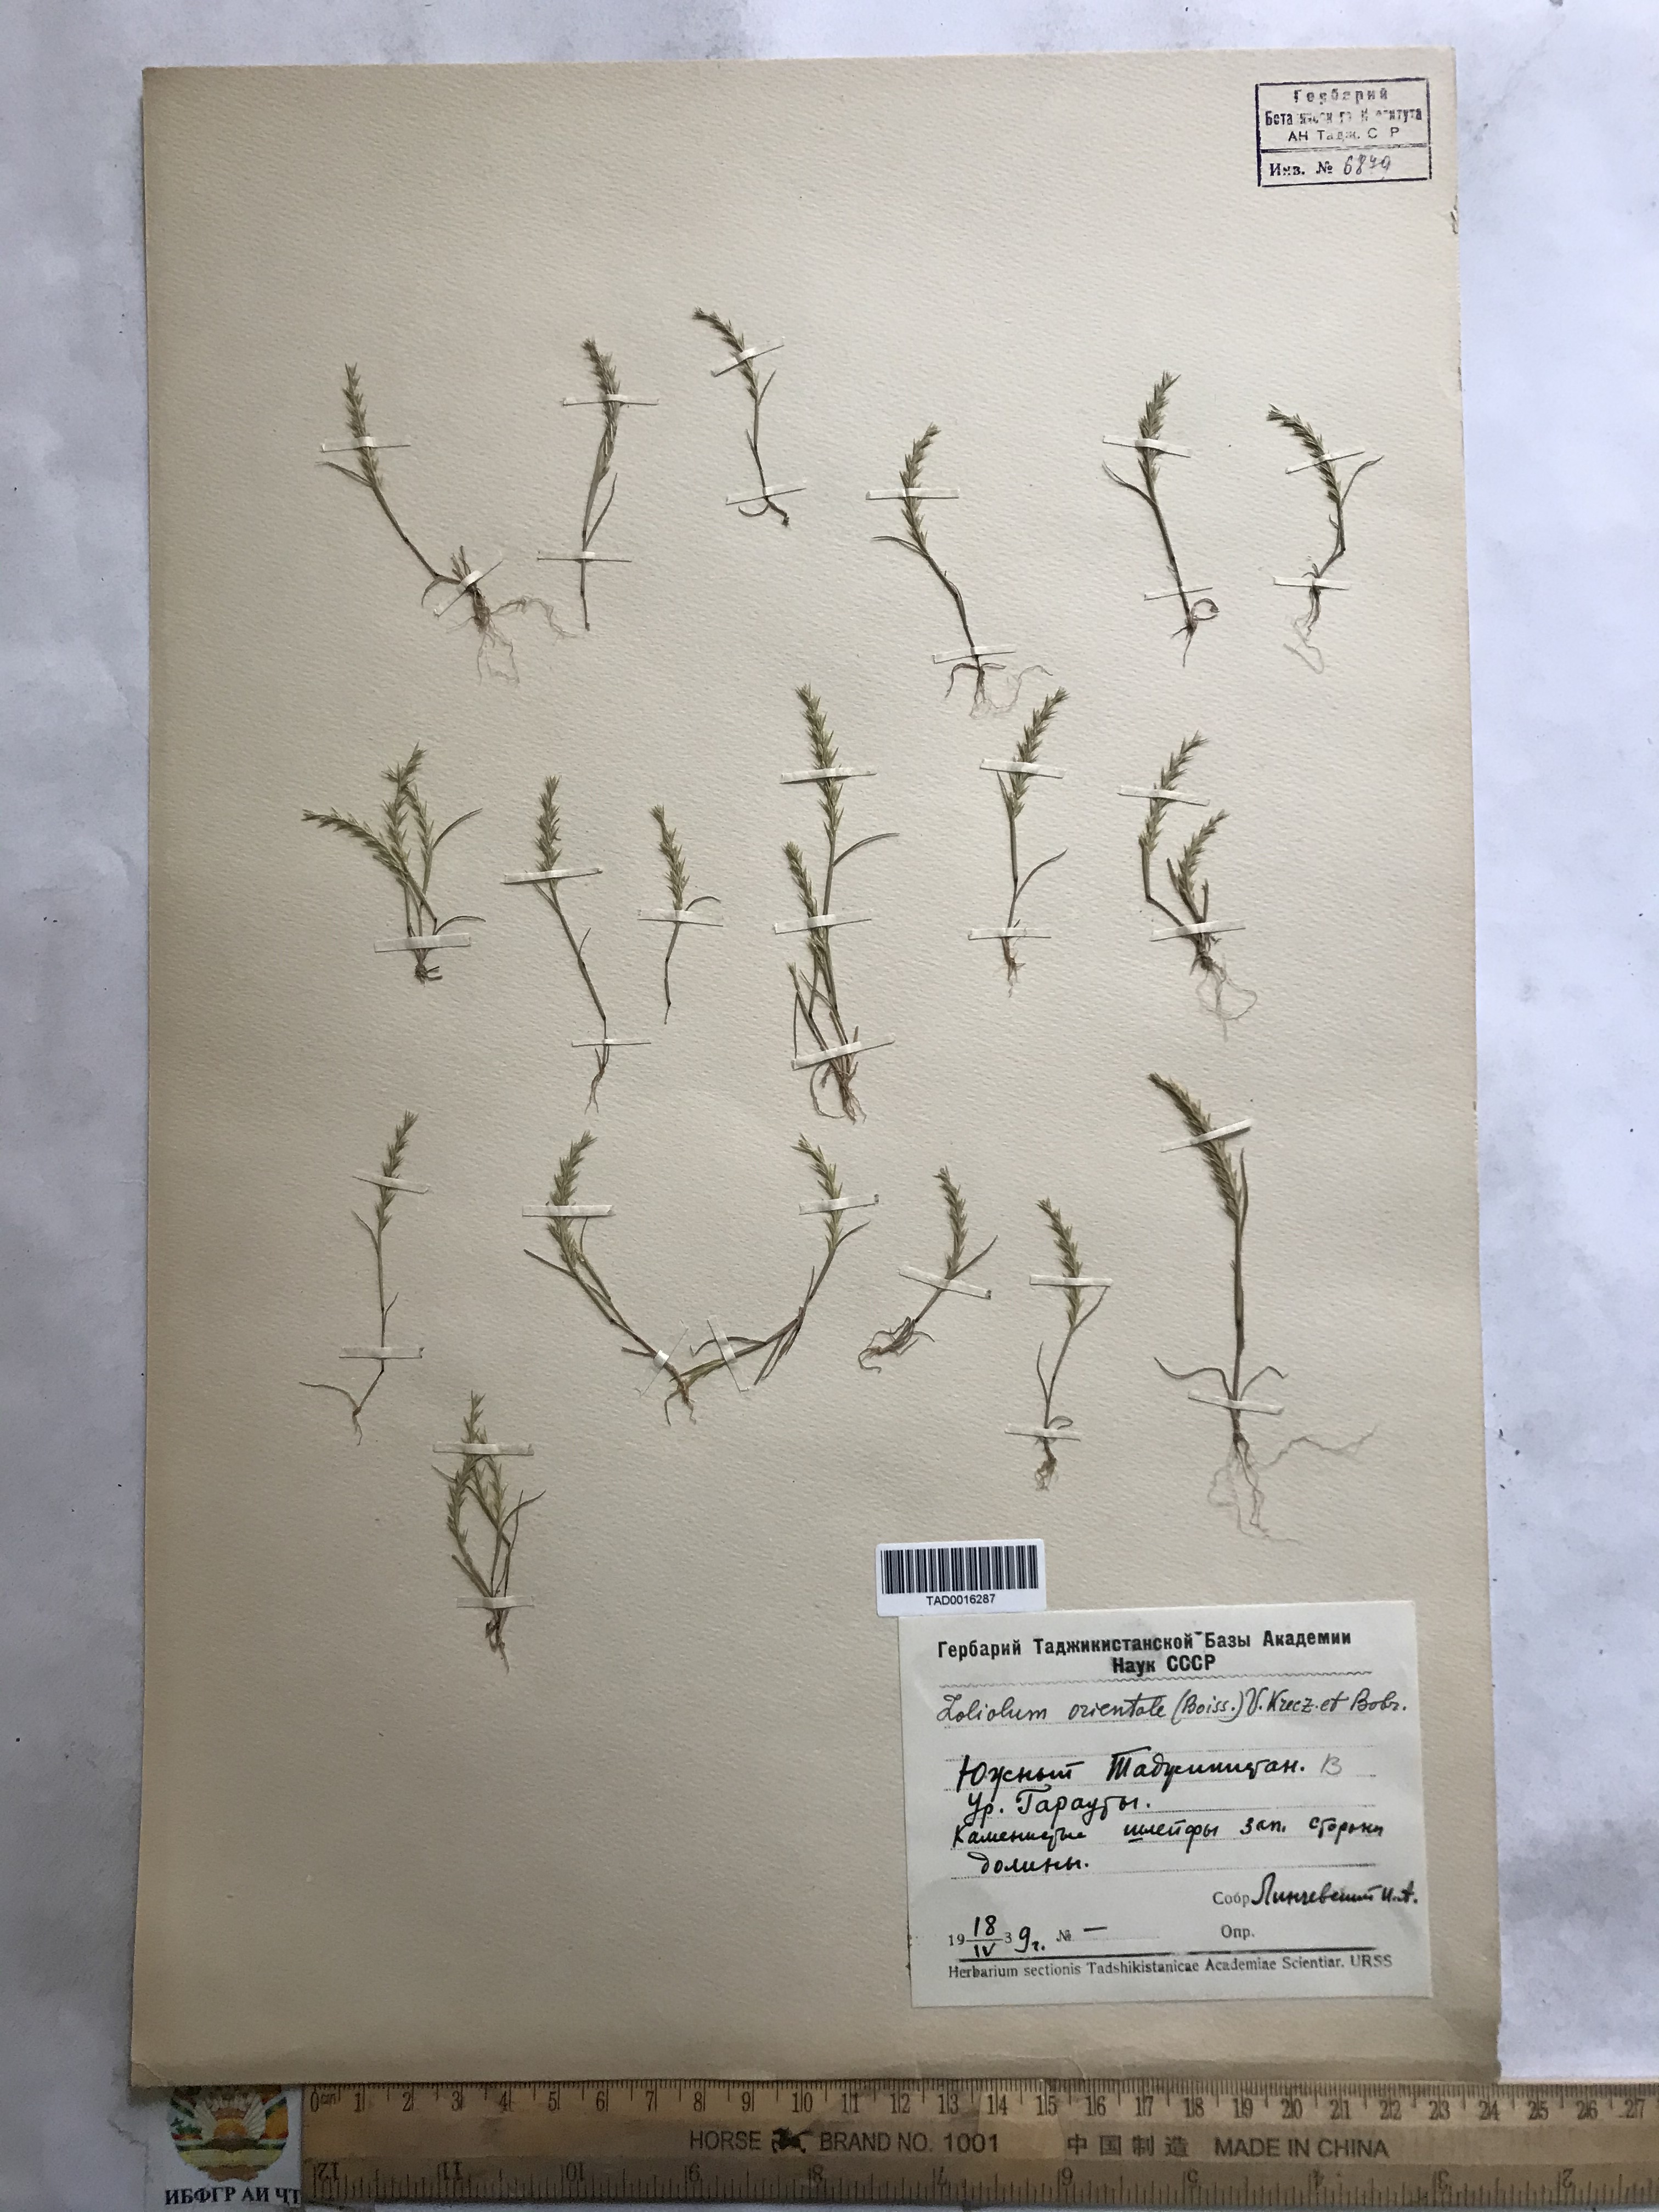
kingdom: Plantae
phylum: Tracheophyta
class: Liliopsida
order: Poales
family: Poaceae
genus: Festuca
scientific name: Festuca orientalis
